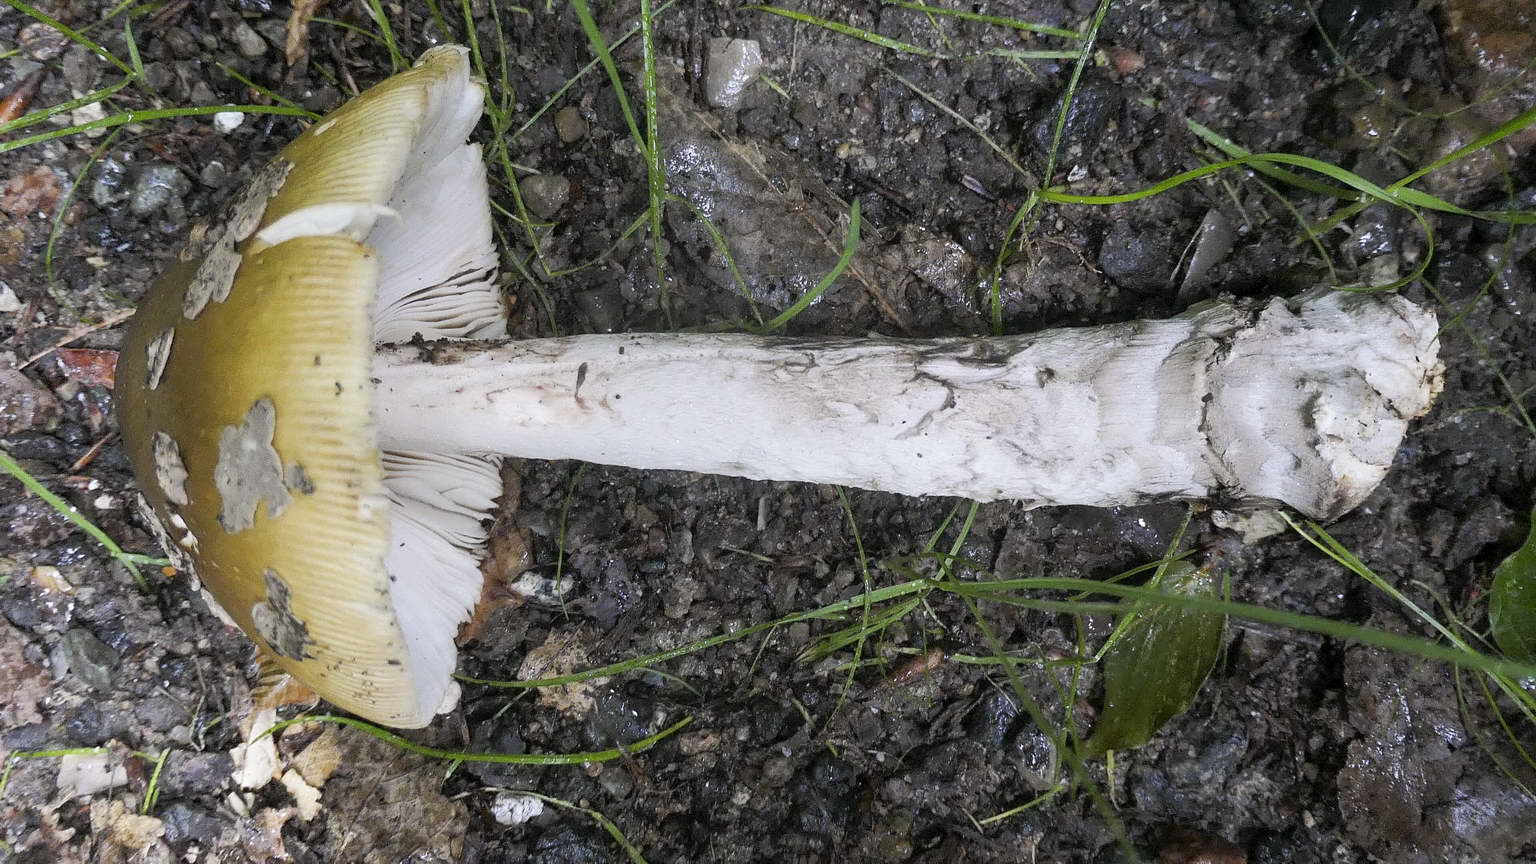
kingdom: Fungi
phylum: Basidiomycota
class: Agaricomycetes
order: Agaricales
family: Amanitaceae
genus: Amanita
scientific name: Amanita ceciliae
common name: stor kam-fluesvamp
